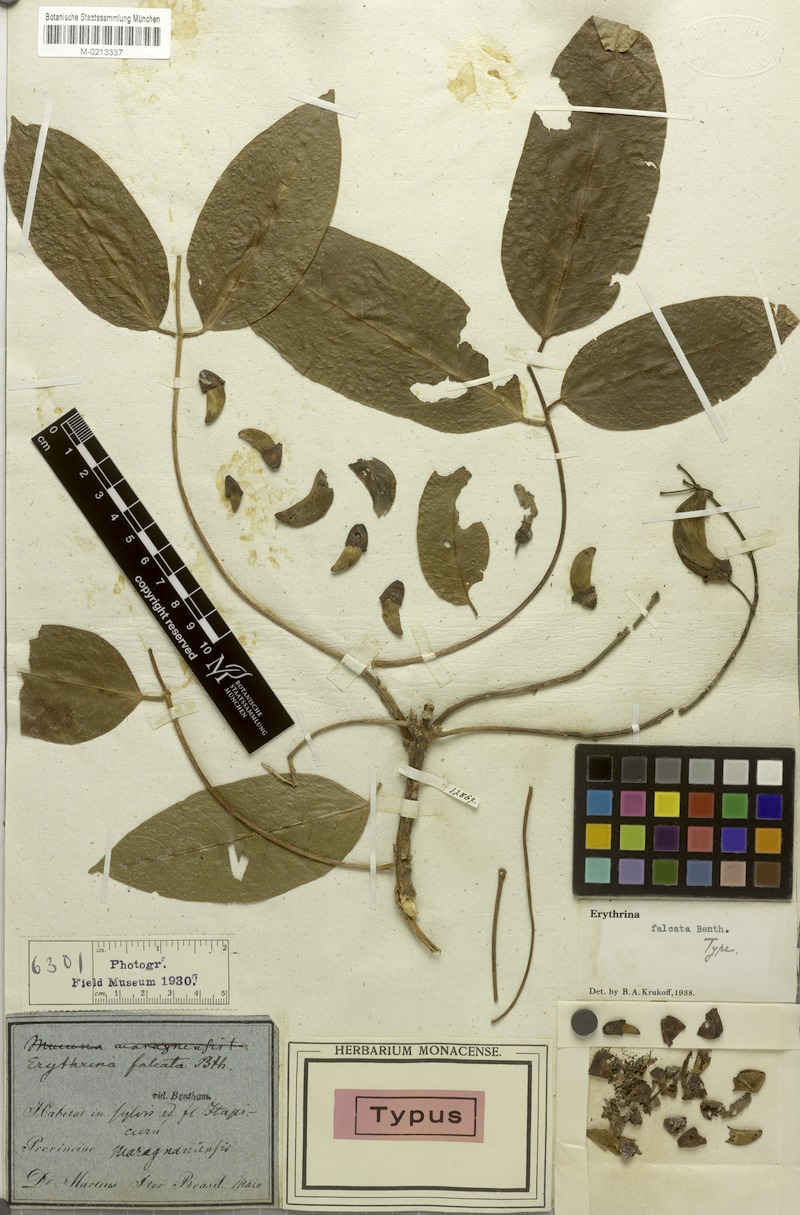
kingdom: Plantae
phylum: Tracheophyta
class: Magnoliopsida
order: Fabales
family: Fabaceae
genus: Erythrina
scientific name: Erythrina falcata
